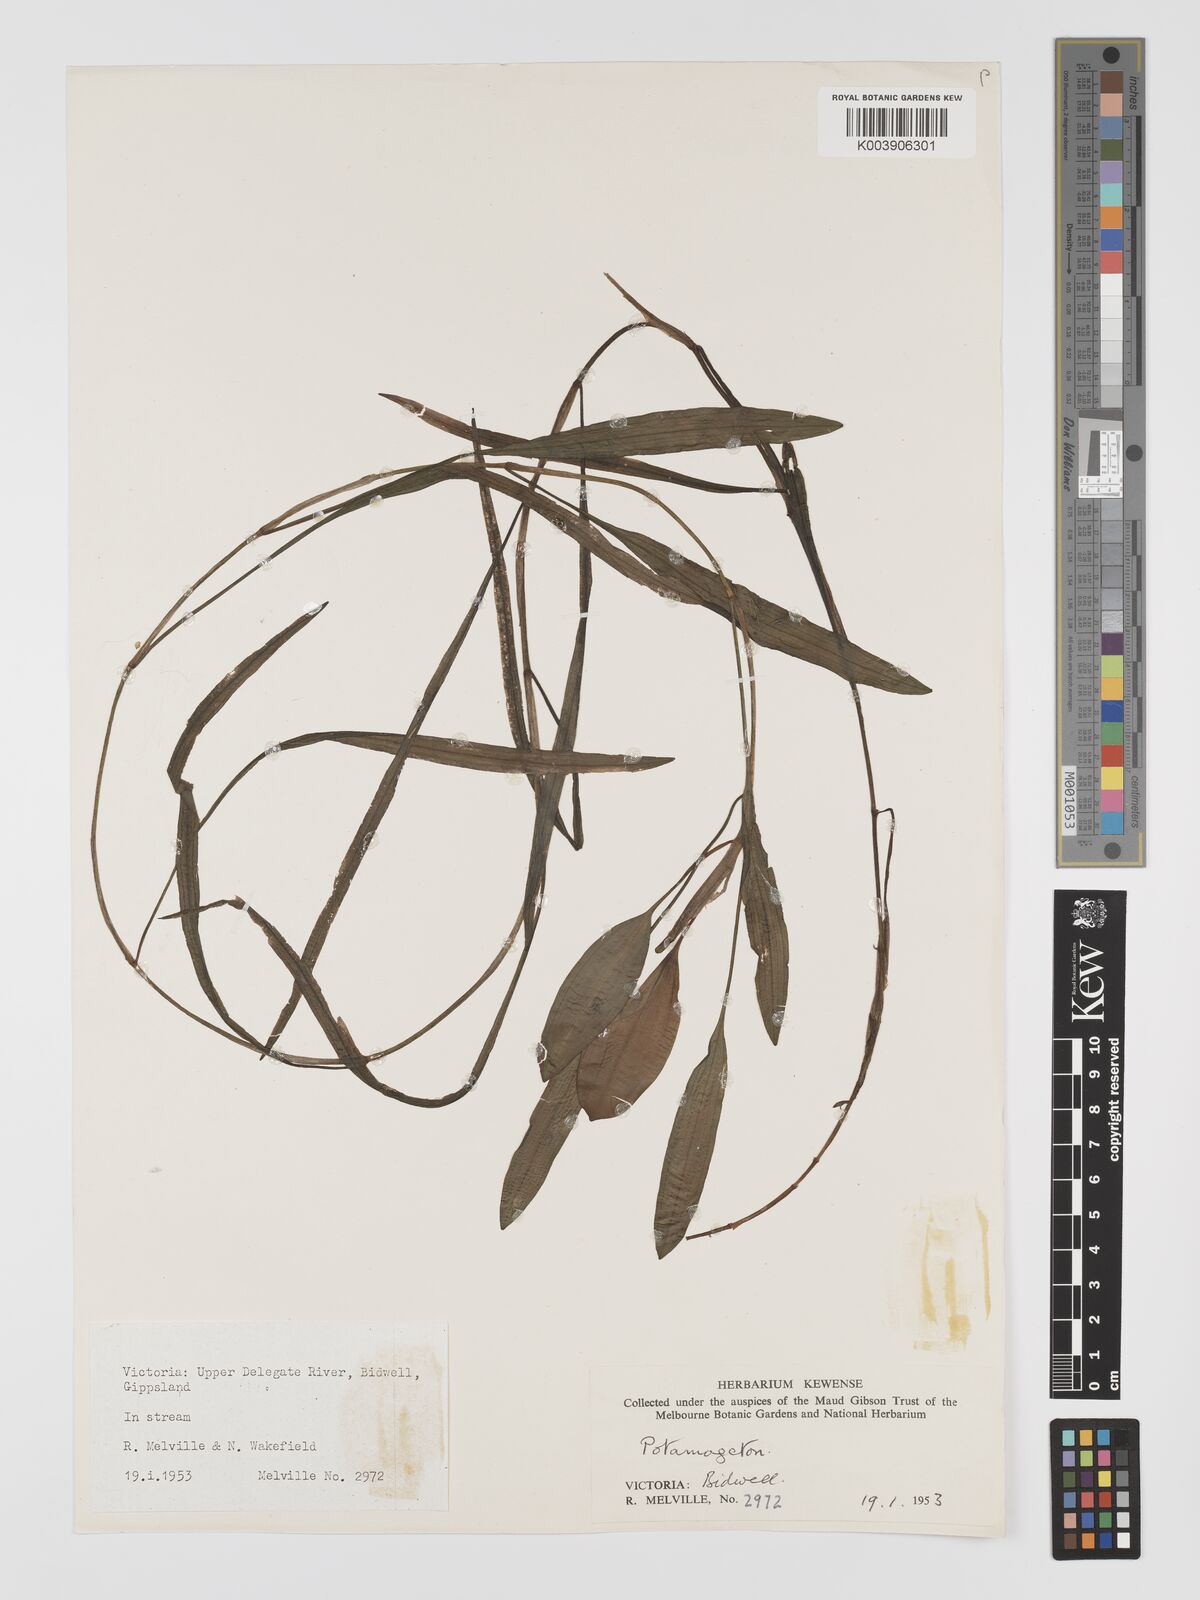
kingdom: Plantae
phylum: Tracheophyta
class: Liliopsida
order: Alismatales
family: Potamogetonaceae
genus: Potamogeton
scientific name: Potamogeton nodosus
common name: Loddon pondweed
